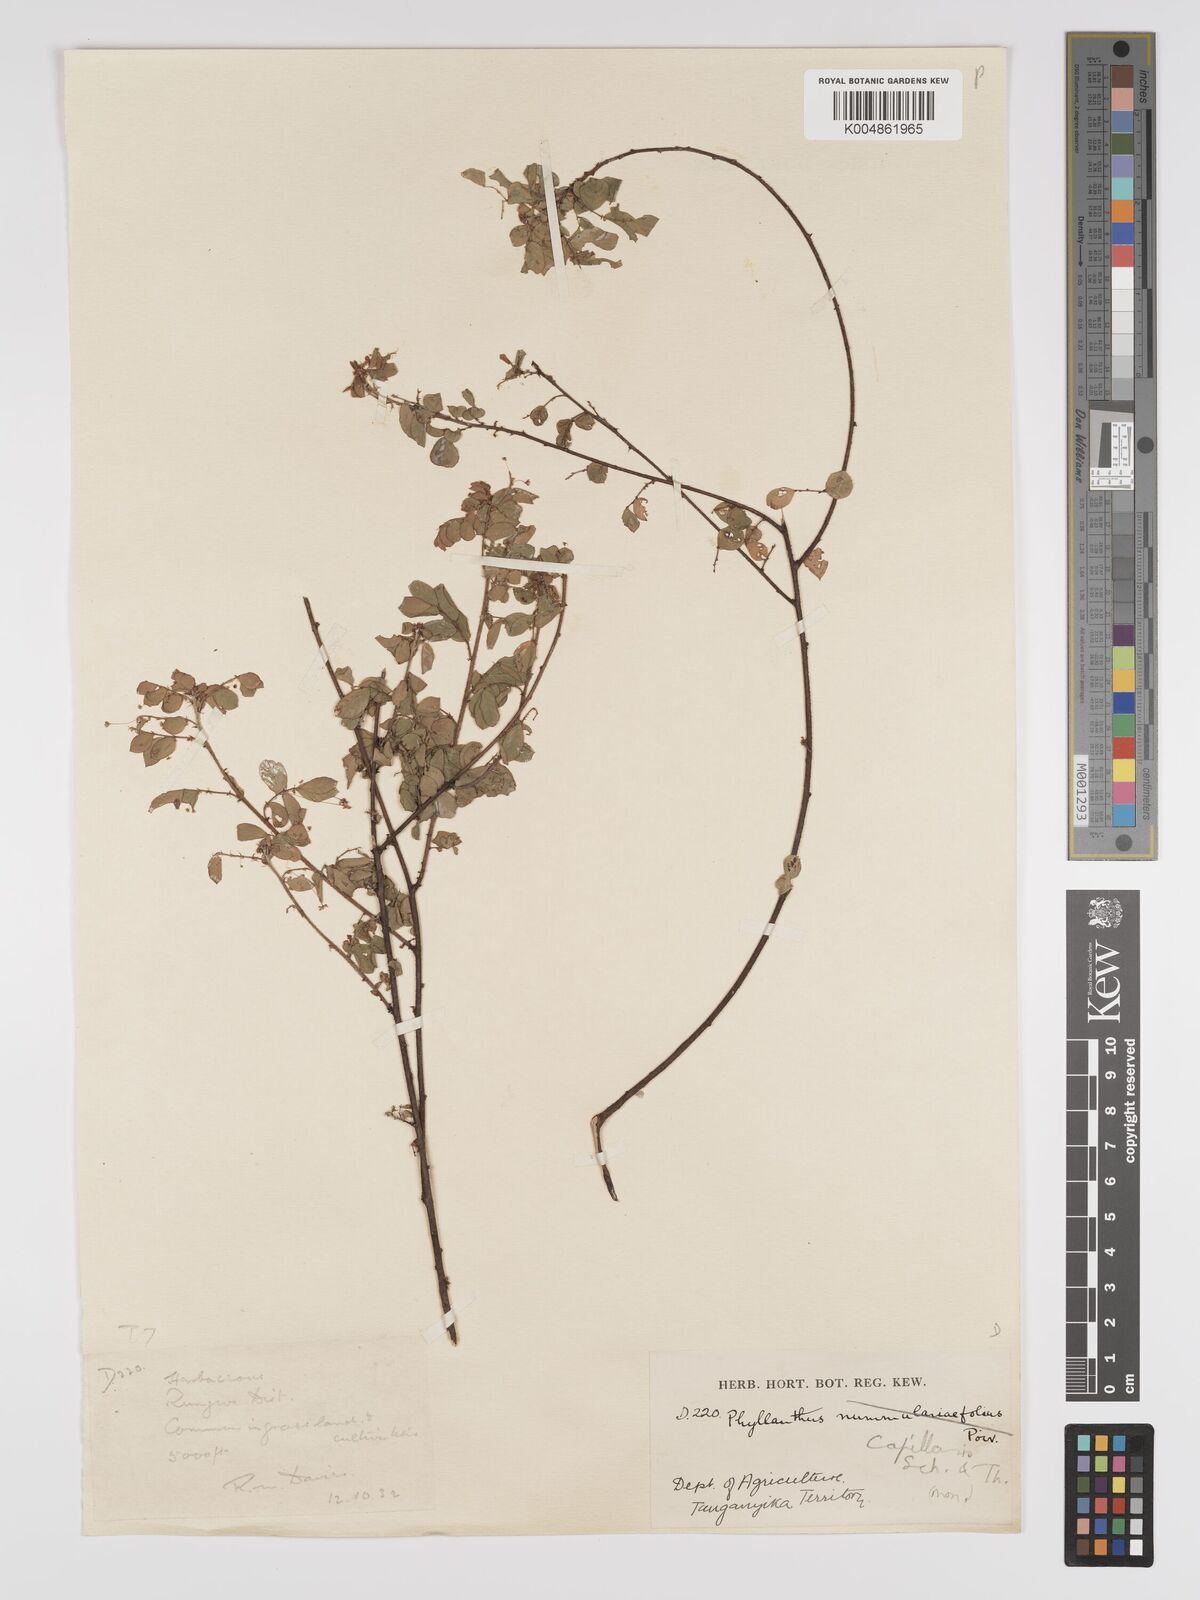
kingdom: Plantae
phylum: Tracheophyta
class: Magnoliopsida
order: Malpighiales
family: Phyllanthaceae
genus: Phyllanthus
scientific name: Phyllanthus nummulariifolius
